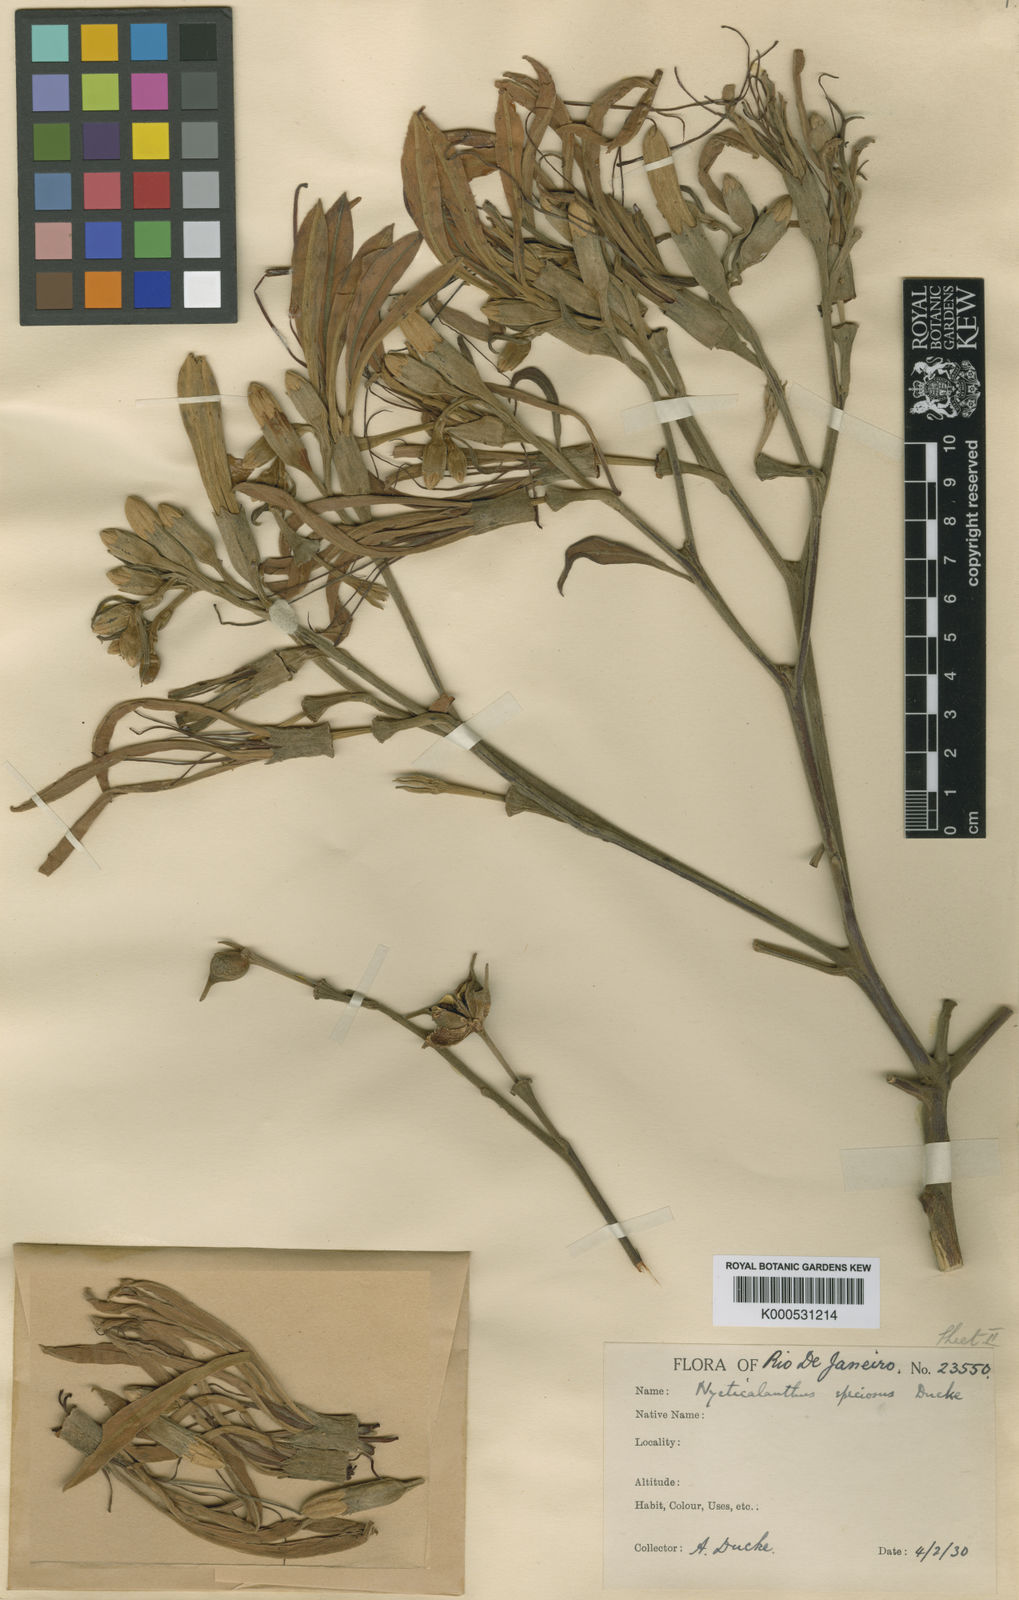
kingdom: Plantae
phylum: Tracheophyta
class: Magnoliopsida
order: Sapindales
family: Rutaceae
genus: Nycticalanthus
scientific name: Nycticalanthus speciosus
